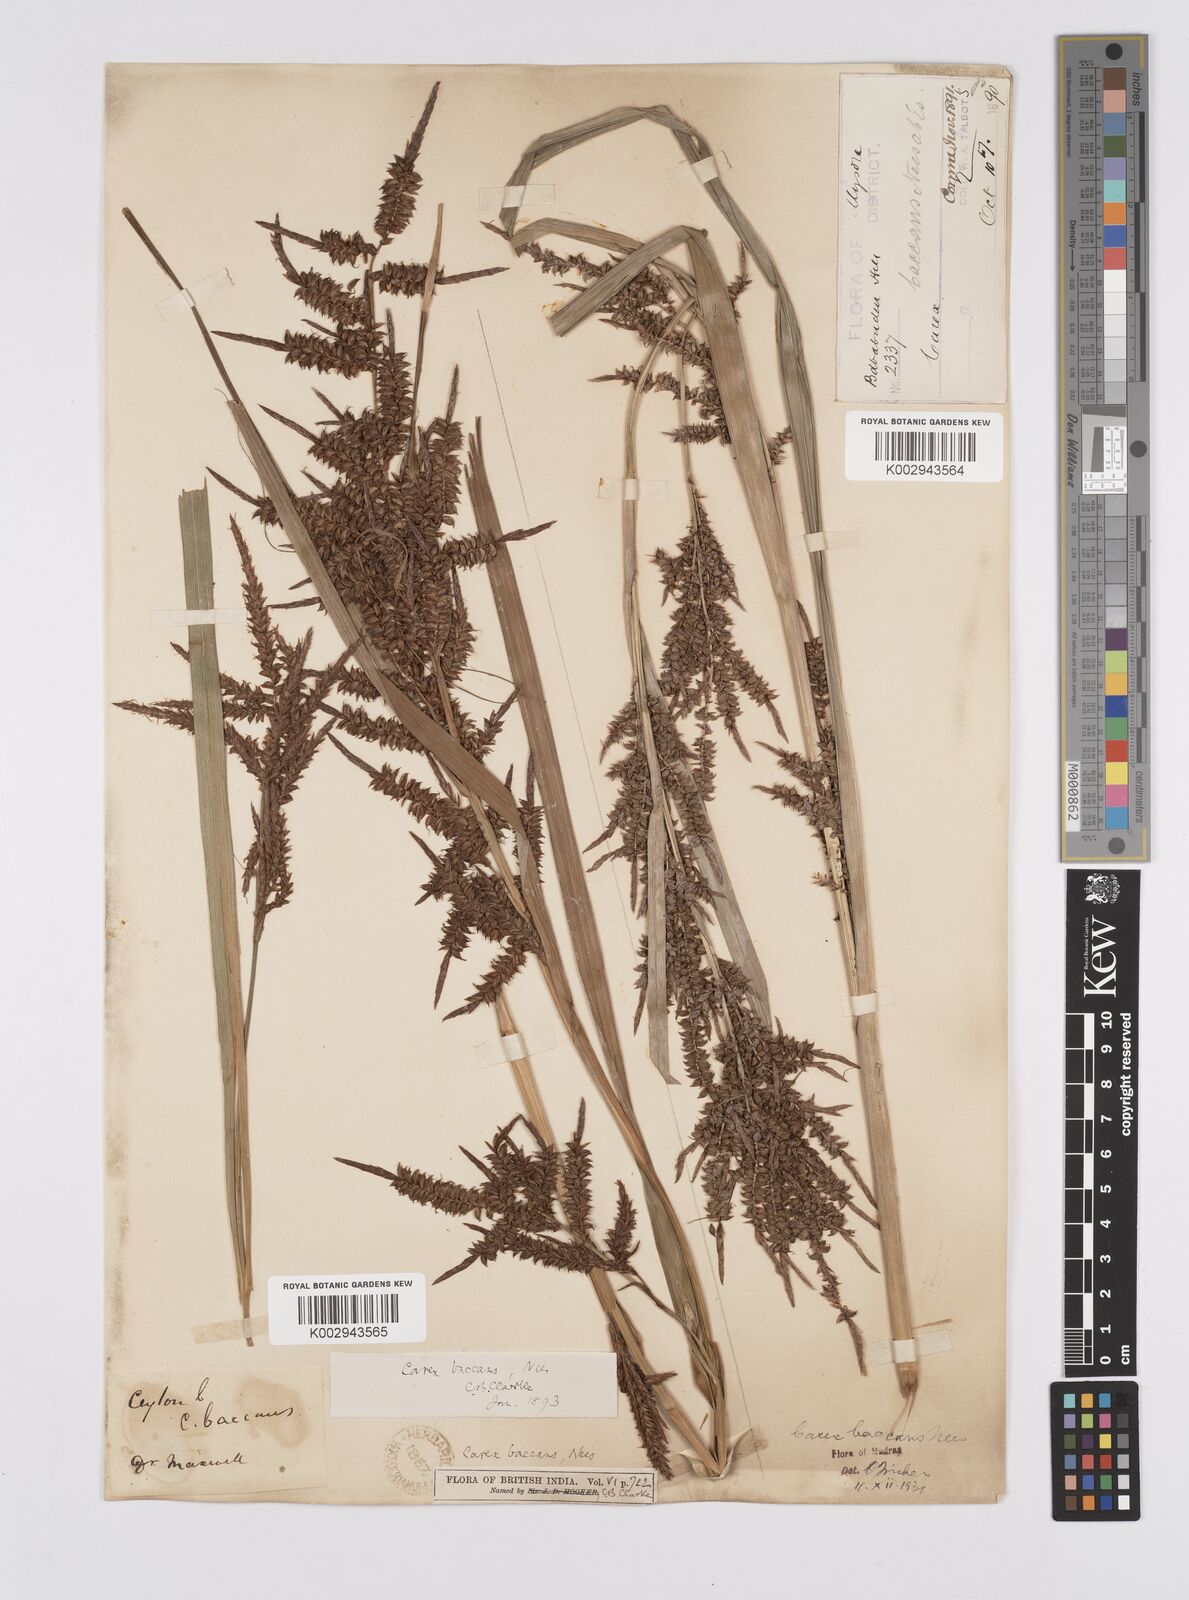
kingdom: Plantae
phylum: Tracheophyta
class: Liliopsida
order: Poales
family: Cyperaceae
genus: Carex
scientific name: Carex baccans
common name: Crimson seeded sedge
